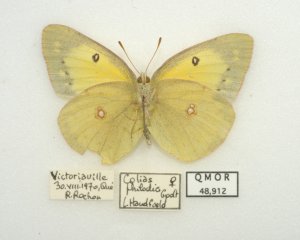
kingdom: Animalia
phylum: Arthropoda
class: Insecta
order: Lepidoptera
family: Pieridae
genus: Colias
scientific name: Colias philodice
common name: Clouded Sulphur
